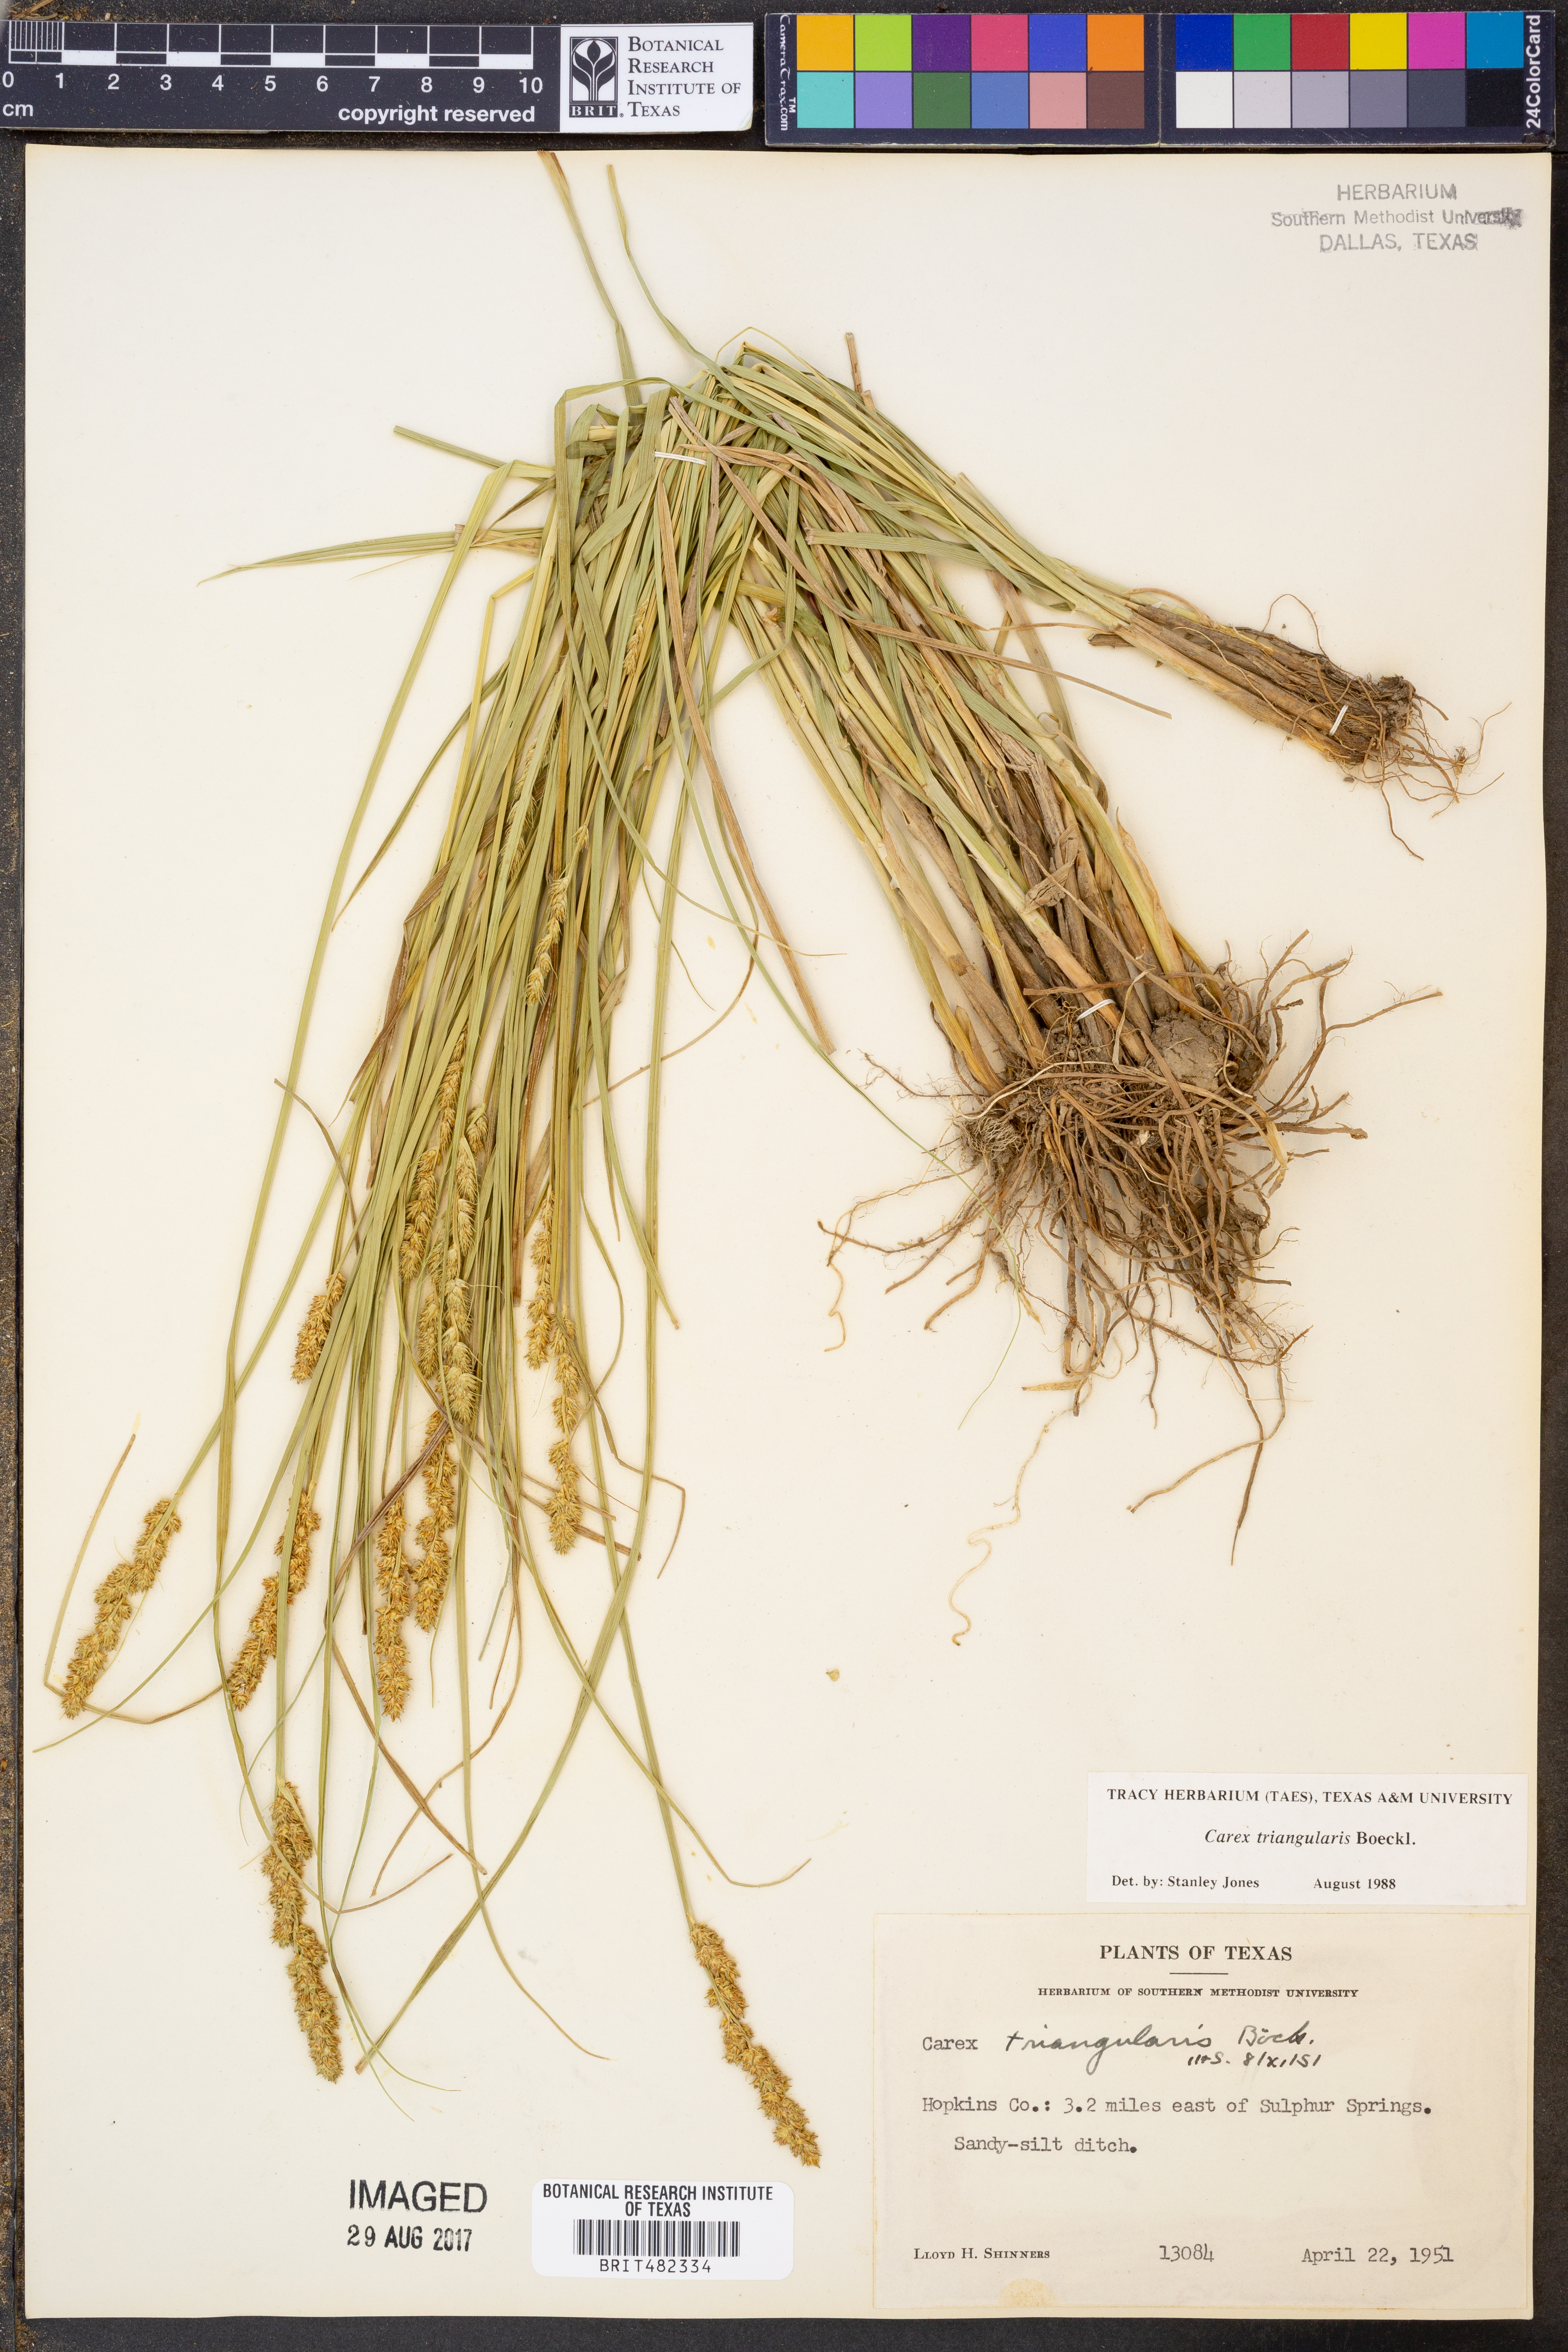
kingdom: Plantae
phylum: Tracheophyta
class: Liliopsida
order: Poales
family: Cyperaceae
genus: Carex
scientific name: Carex triangularis
